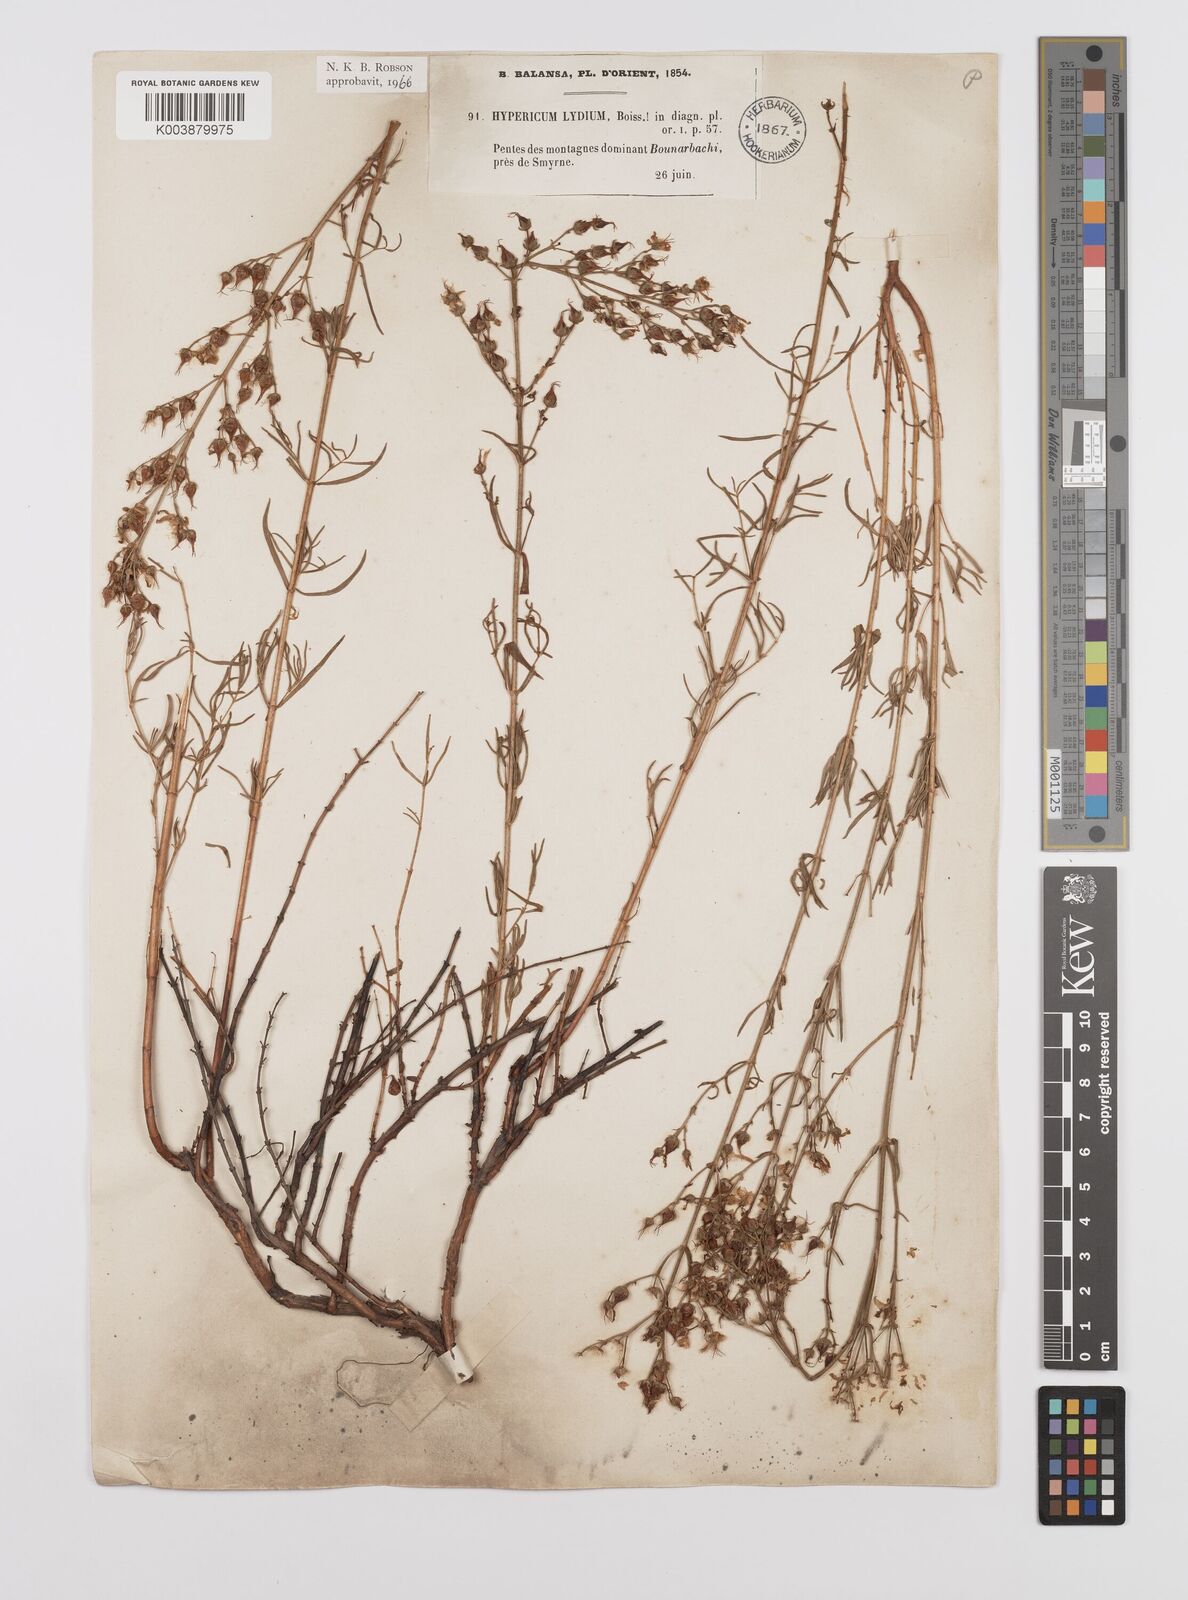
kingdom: Plantae
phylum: Tracheophyta
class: Magnoliopsida
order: Malpighiales
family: Hypericaceae
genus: Hypericum
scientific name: Hypericum lydium
